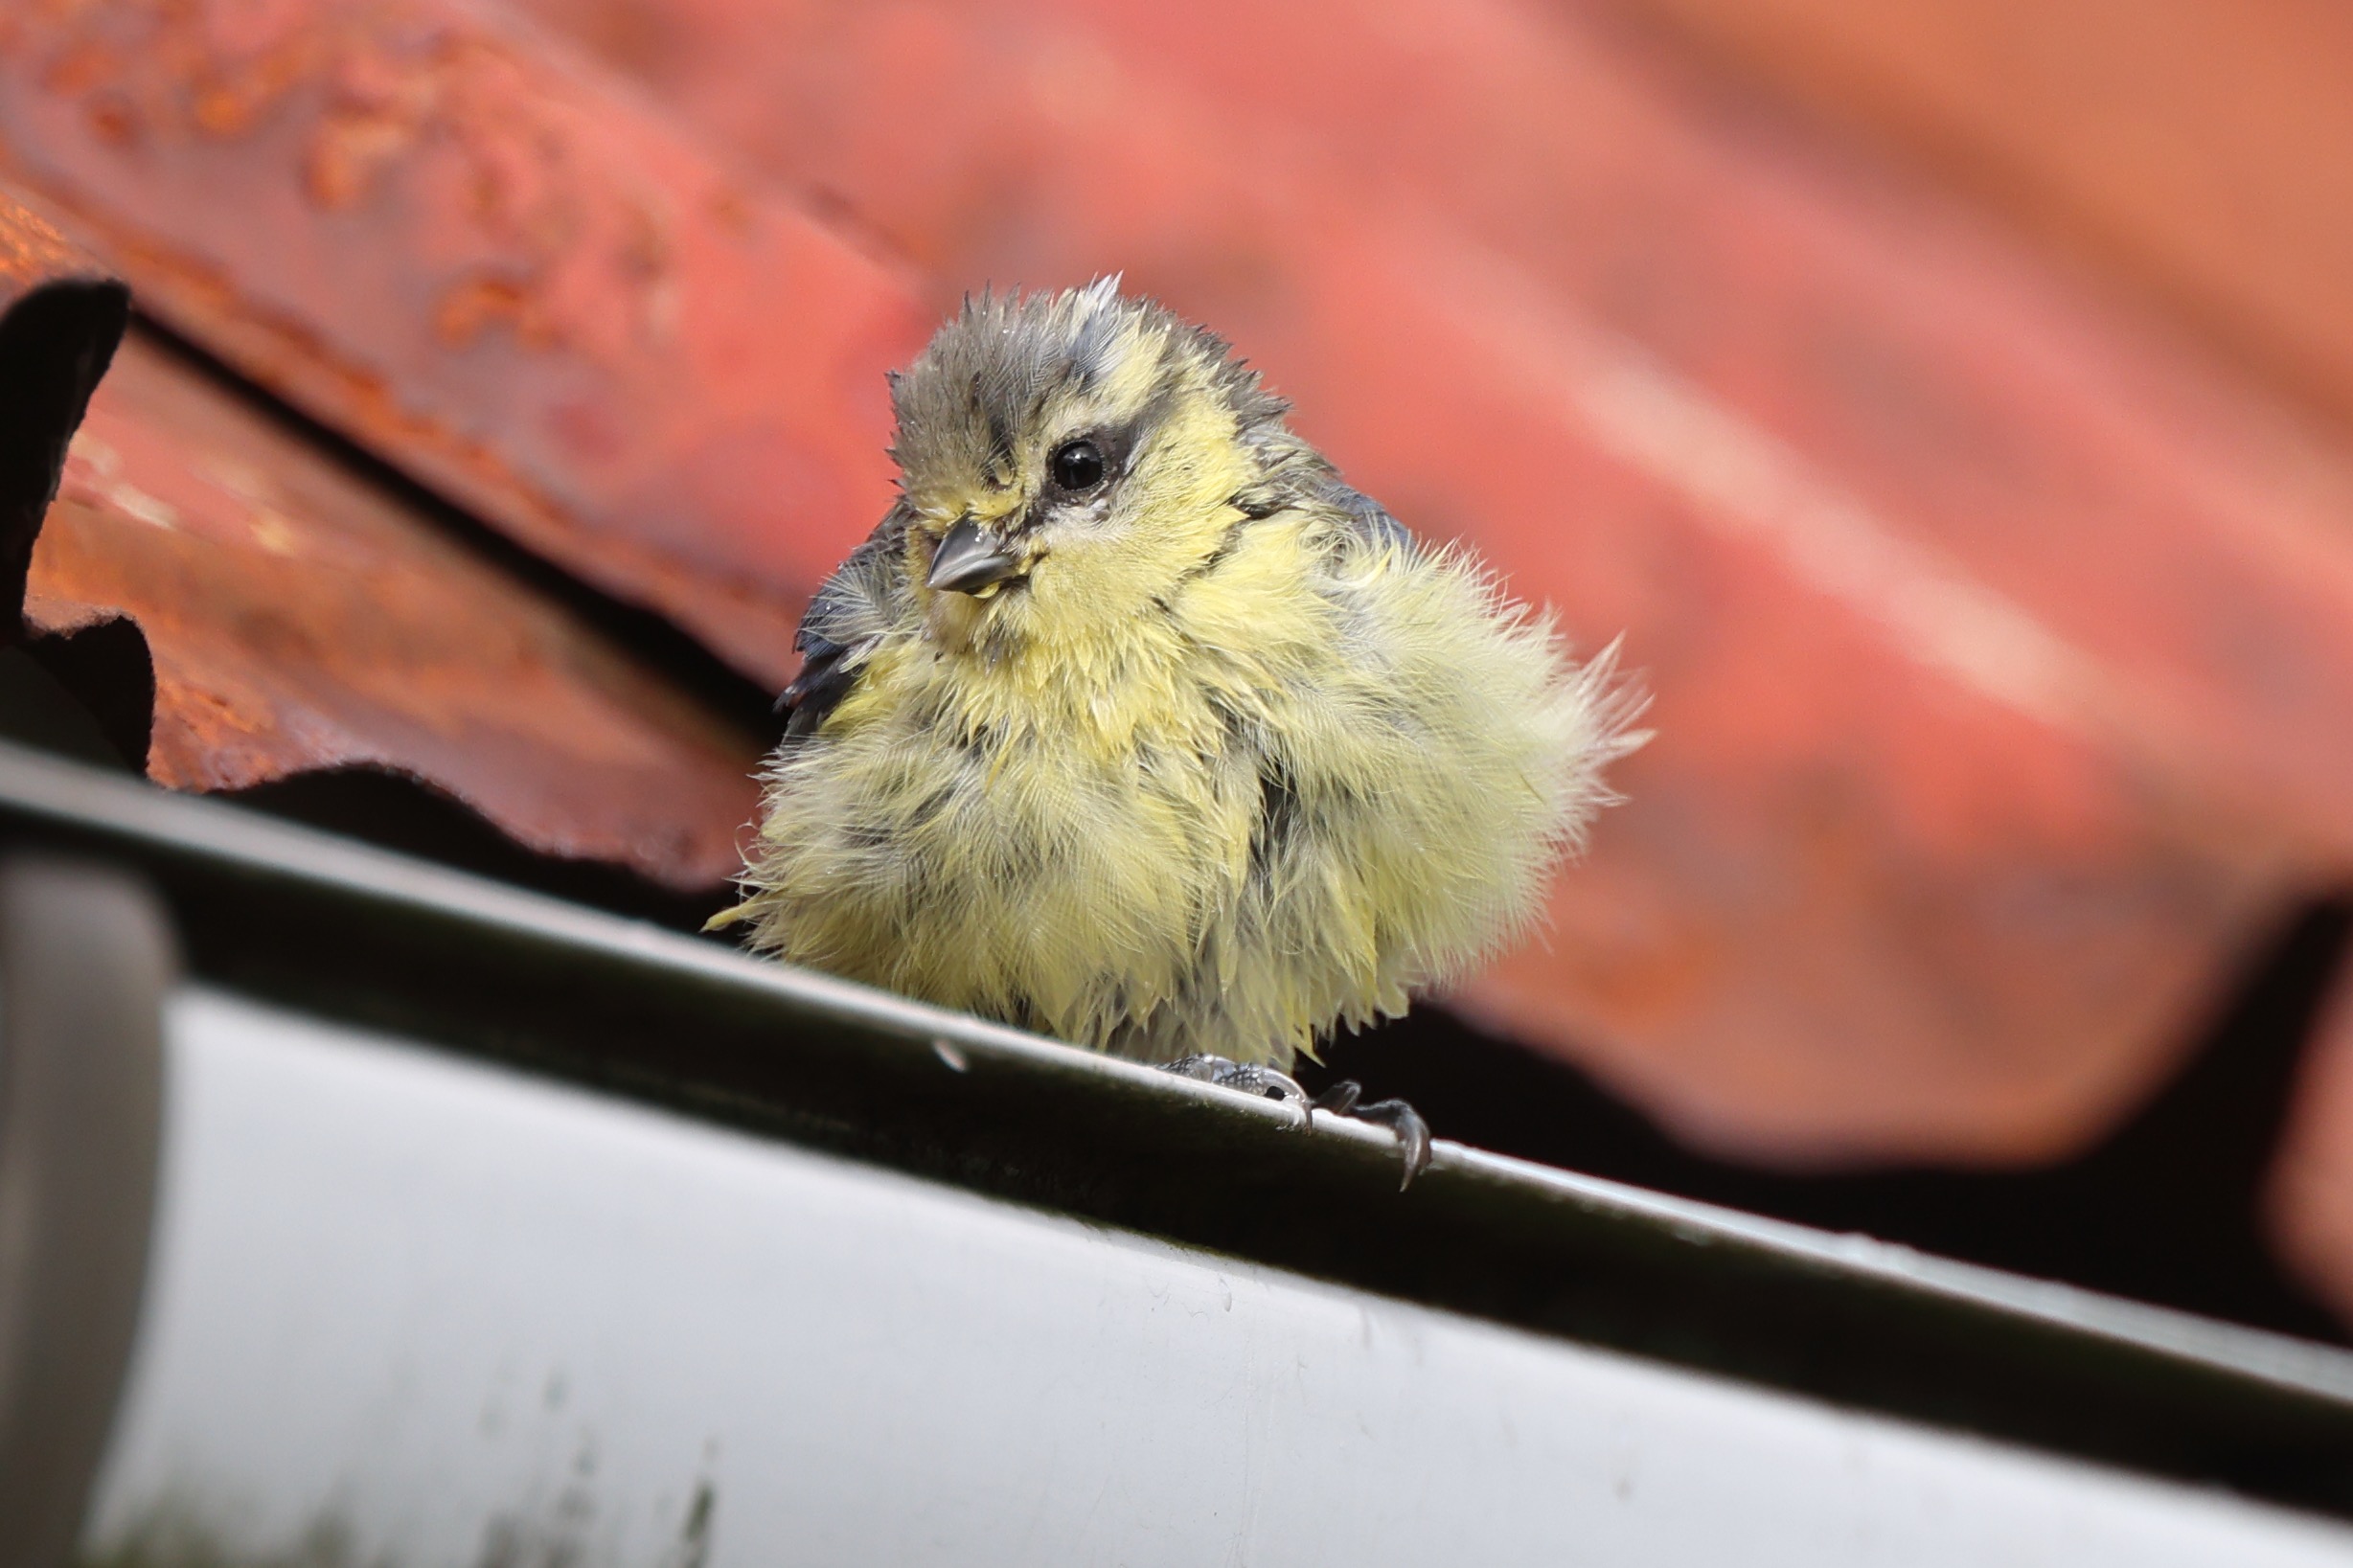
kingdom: Animalia
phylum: Chordata
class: Aves
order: Passeriformes
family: Paridae
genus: Cyanistes
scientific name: Cyanistes caeruleus
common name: Blåmejse
